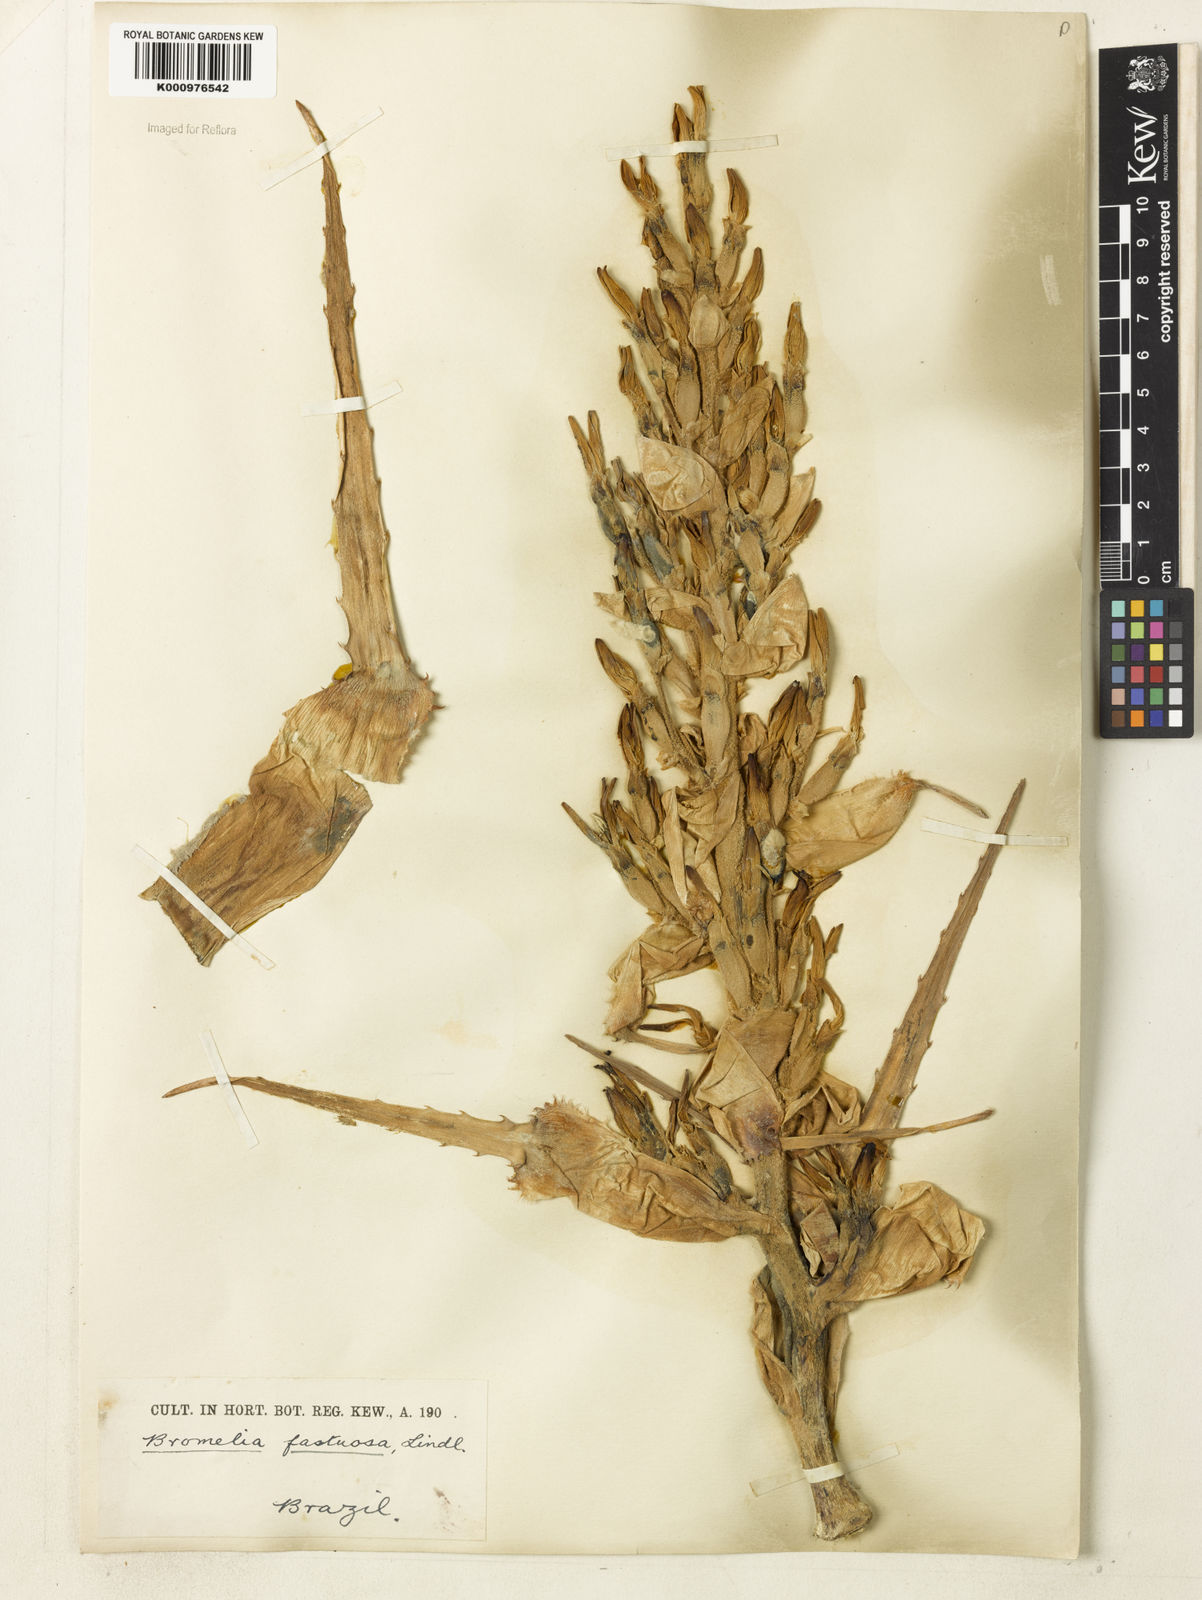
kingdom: Plantae
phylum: Tracheophyta
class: Liliopsida
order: Poales
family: Bromeliaceae
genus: Bromelia
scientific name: Bromelia pinguin
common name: Pinguin
